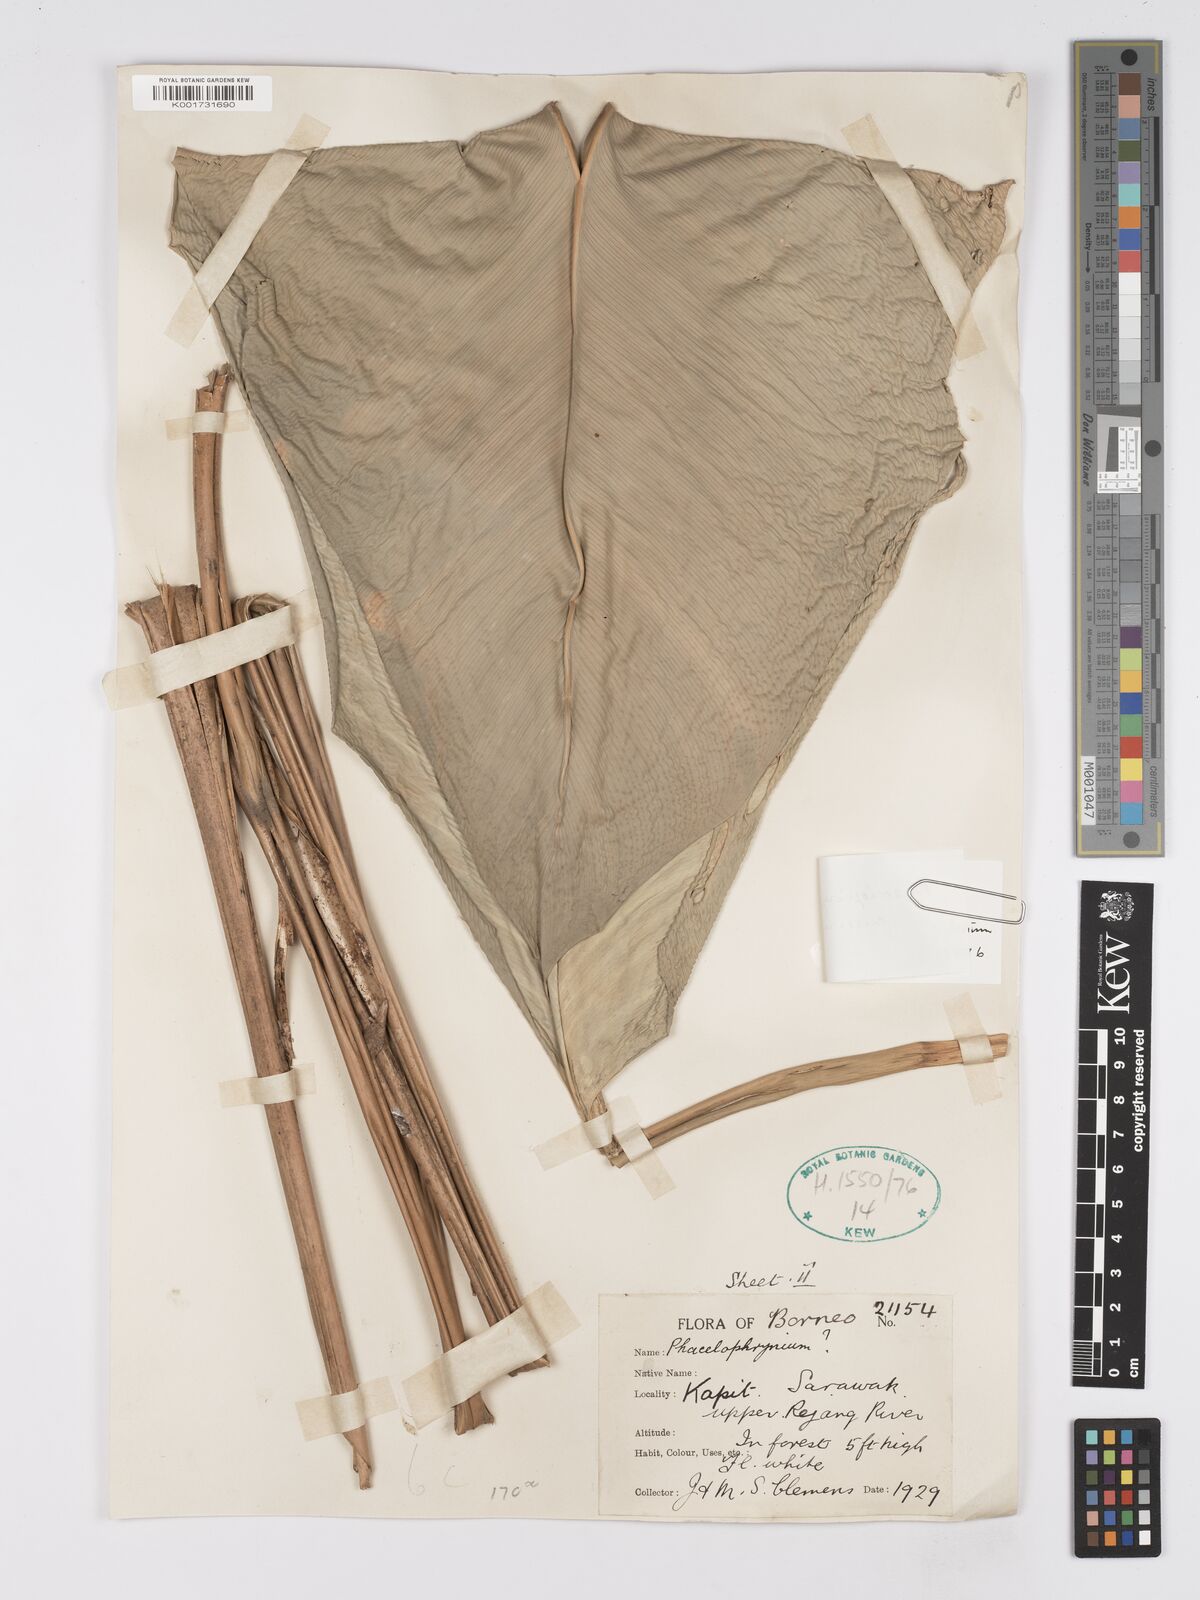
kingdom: Plantae
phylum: Tracheophyta
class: Liliopsida
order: Zingiberales
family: Marantaceae
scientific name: Marantaceae
